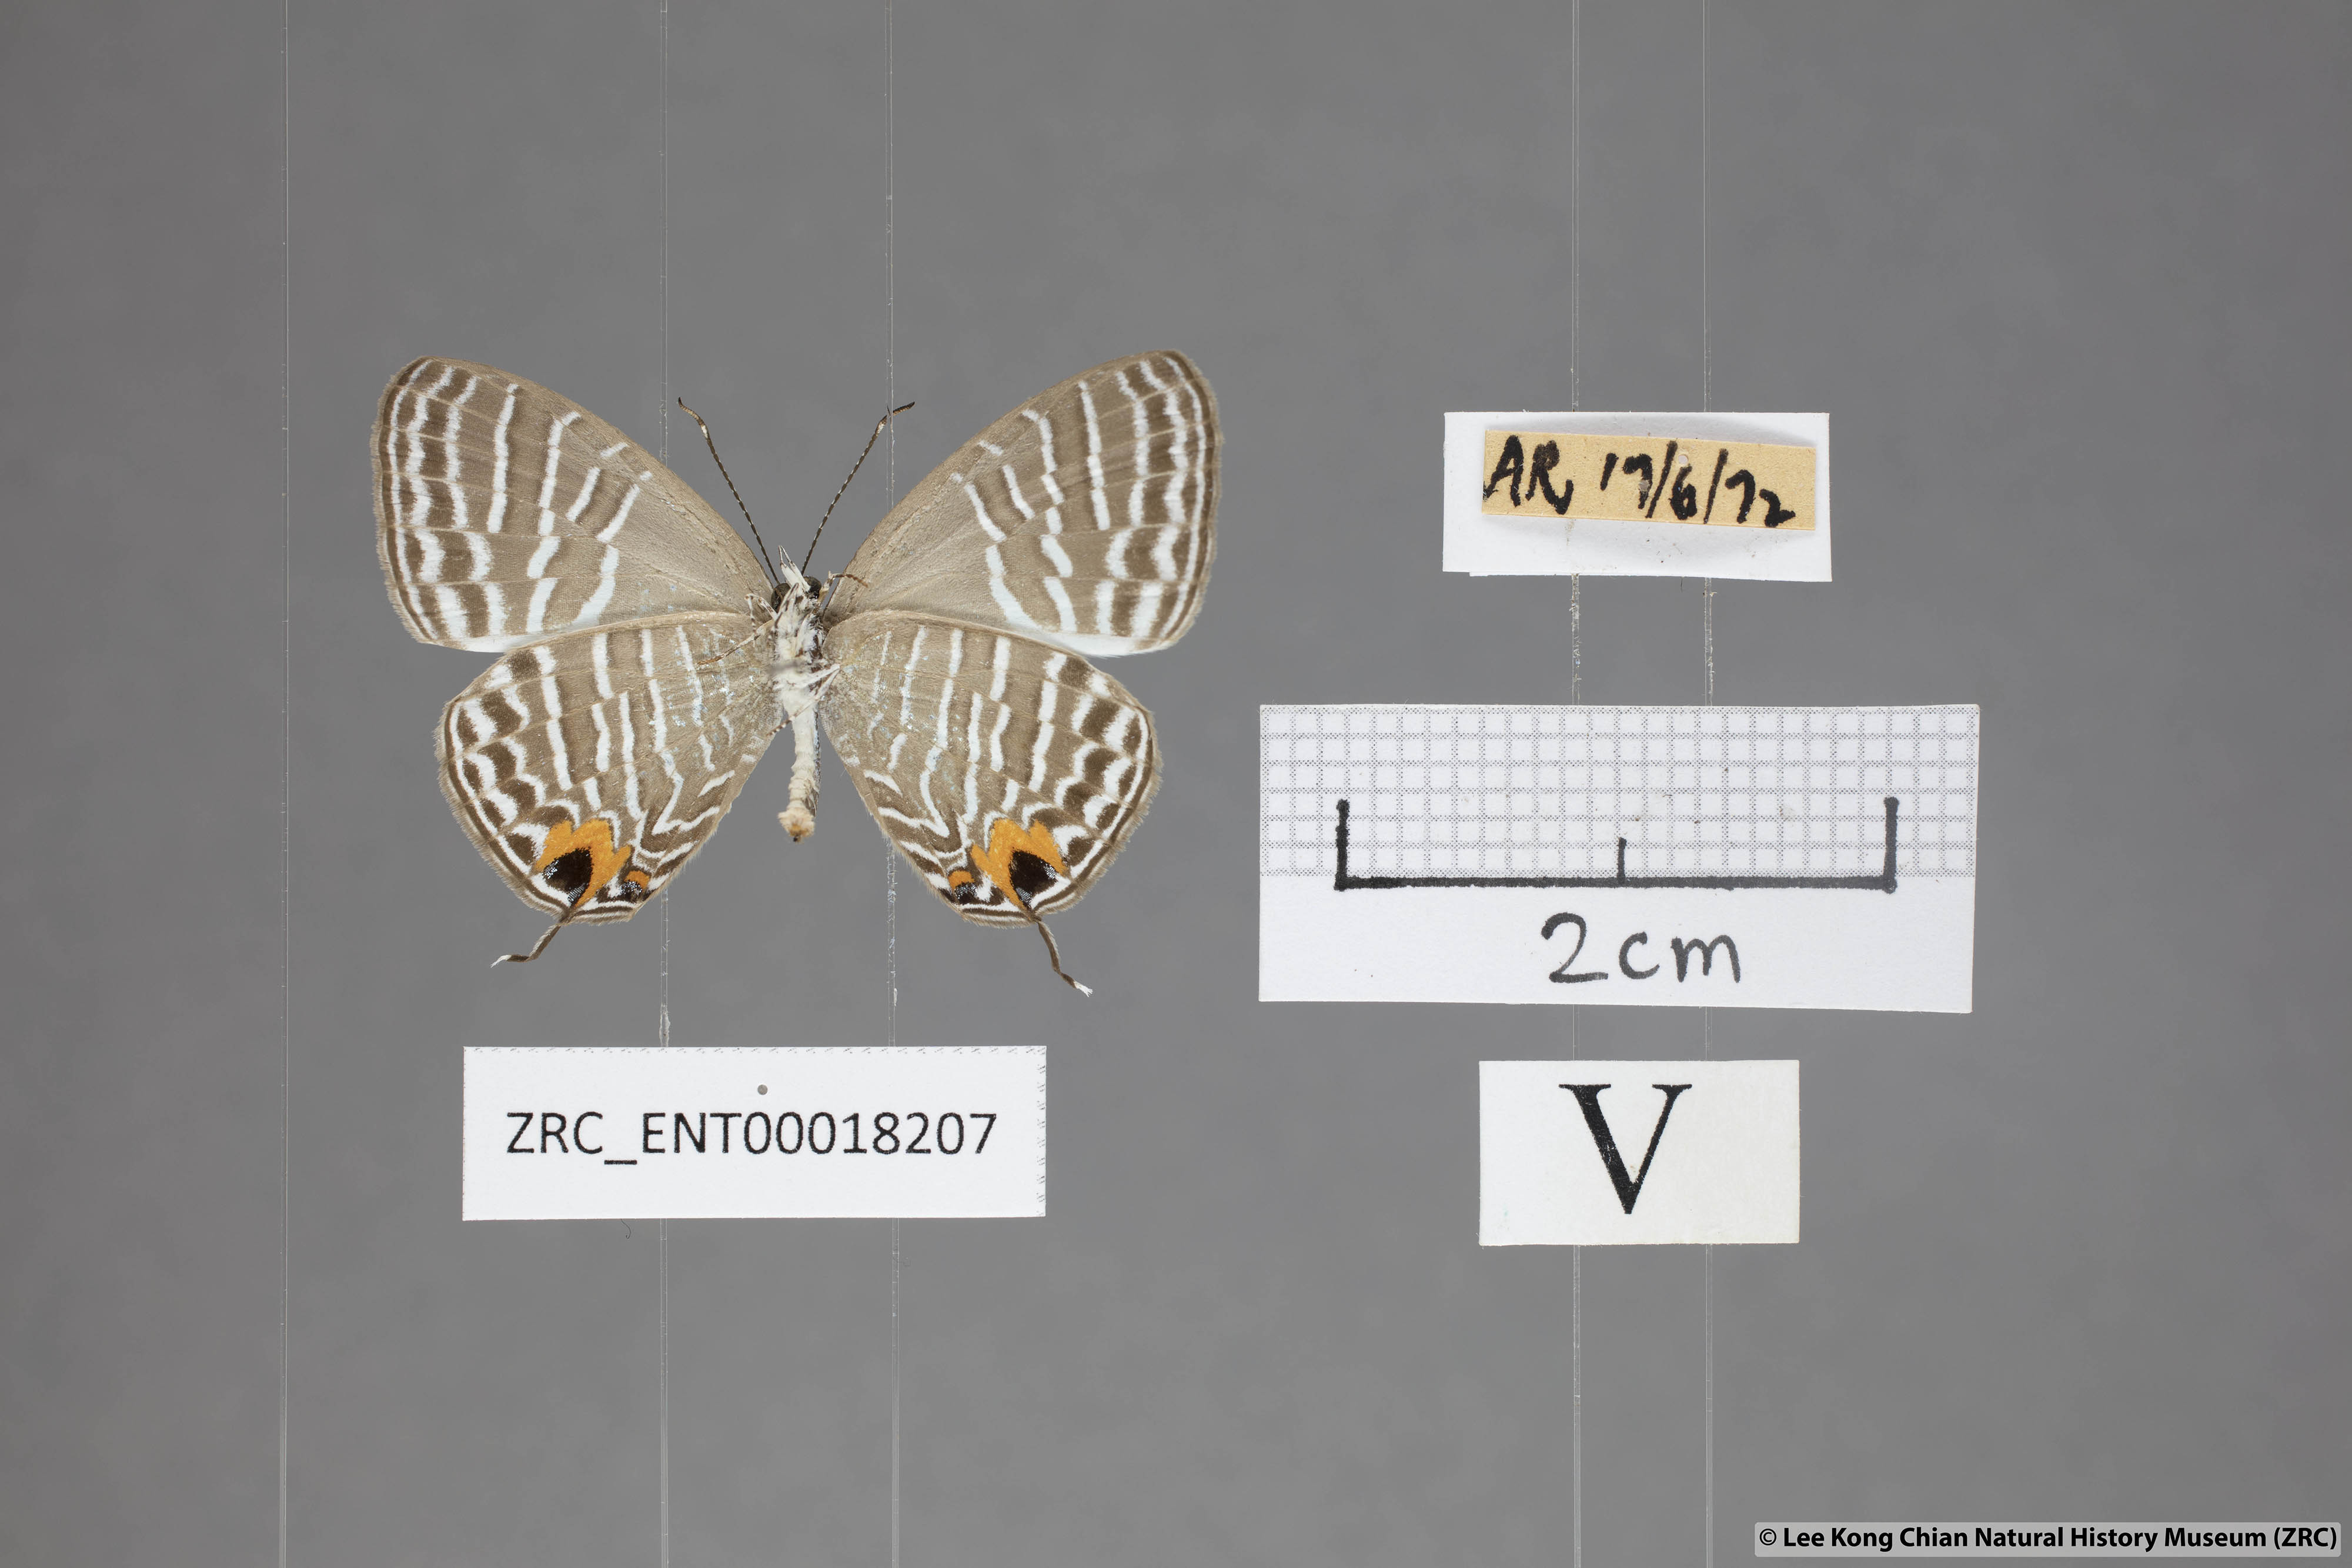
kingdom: Animalia
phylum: Arthropoda
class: Insecta
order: Lepidoptera
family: Lycaenidae
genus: Jamides
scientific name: Jamides zebra
